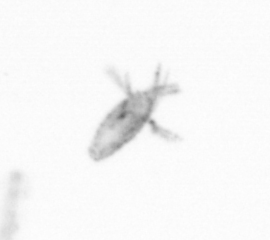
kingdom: Animalia
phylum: Arthropoda
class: Copepoda
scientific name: Copepoda
